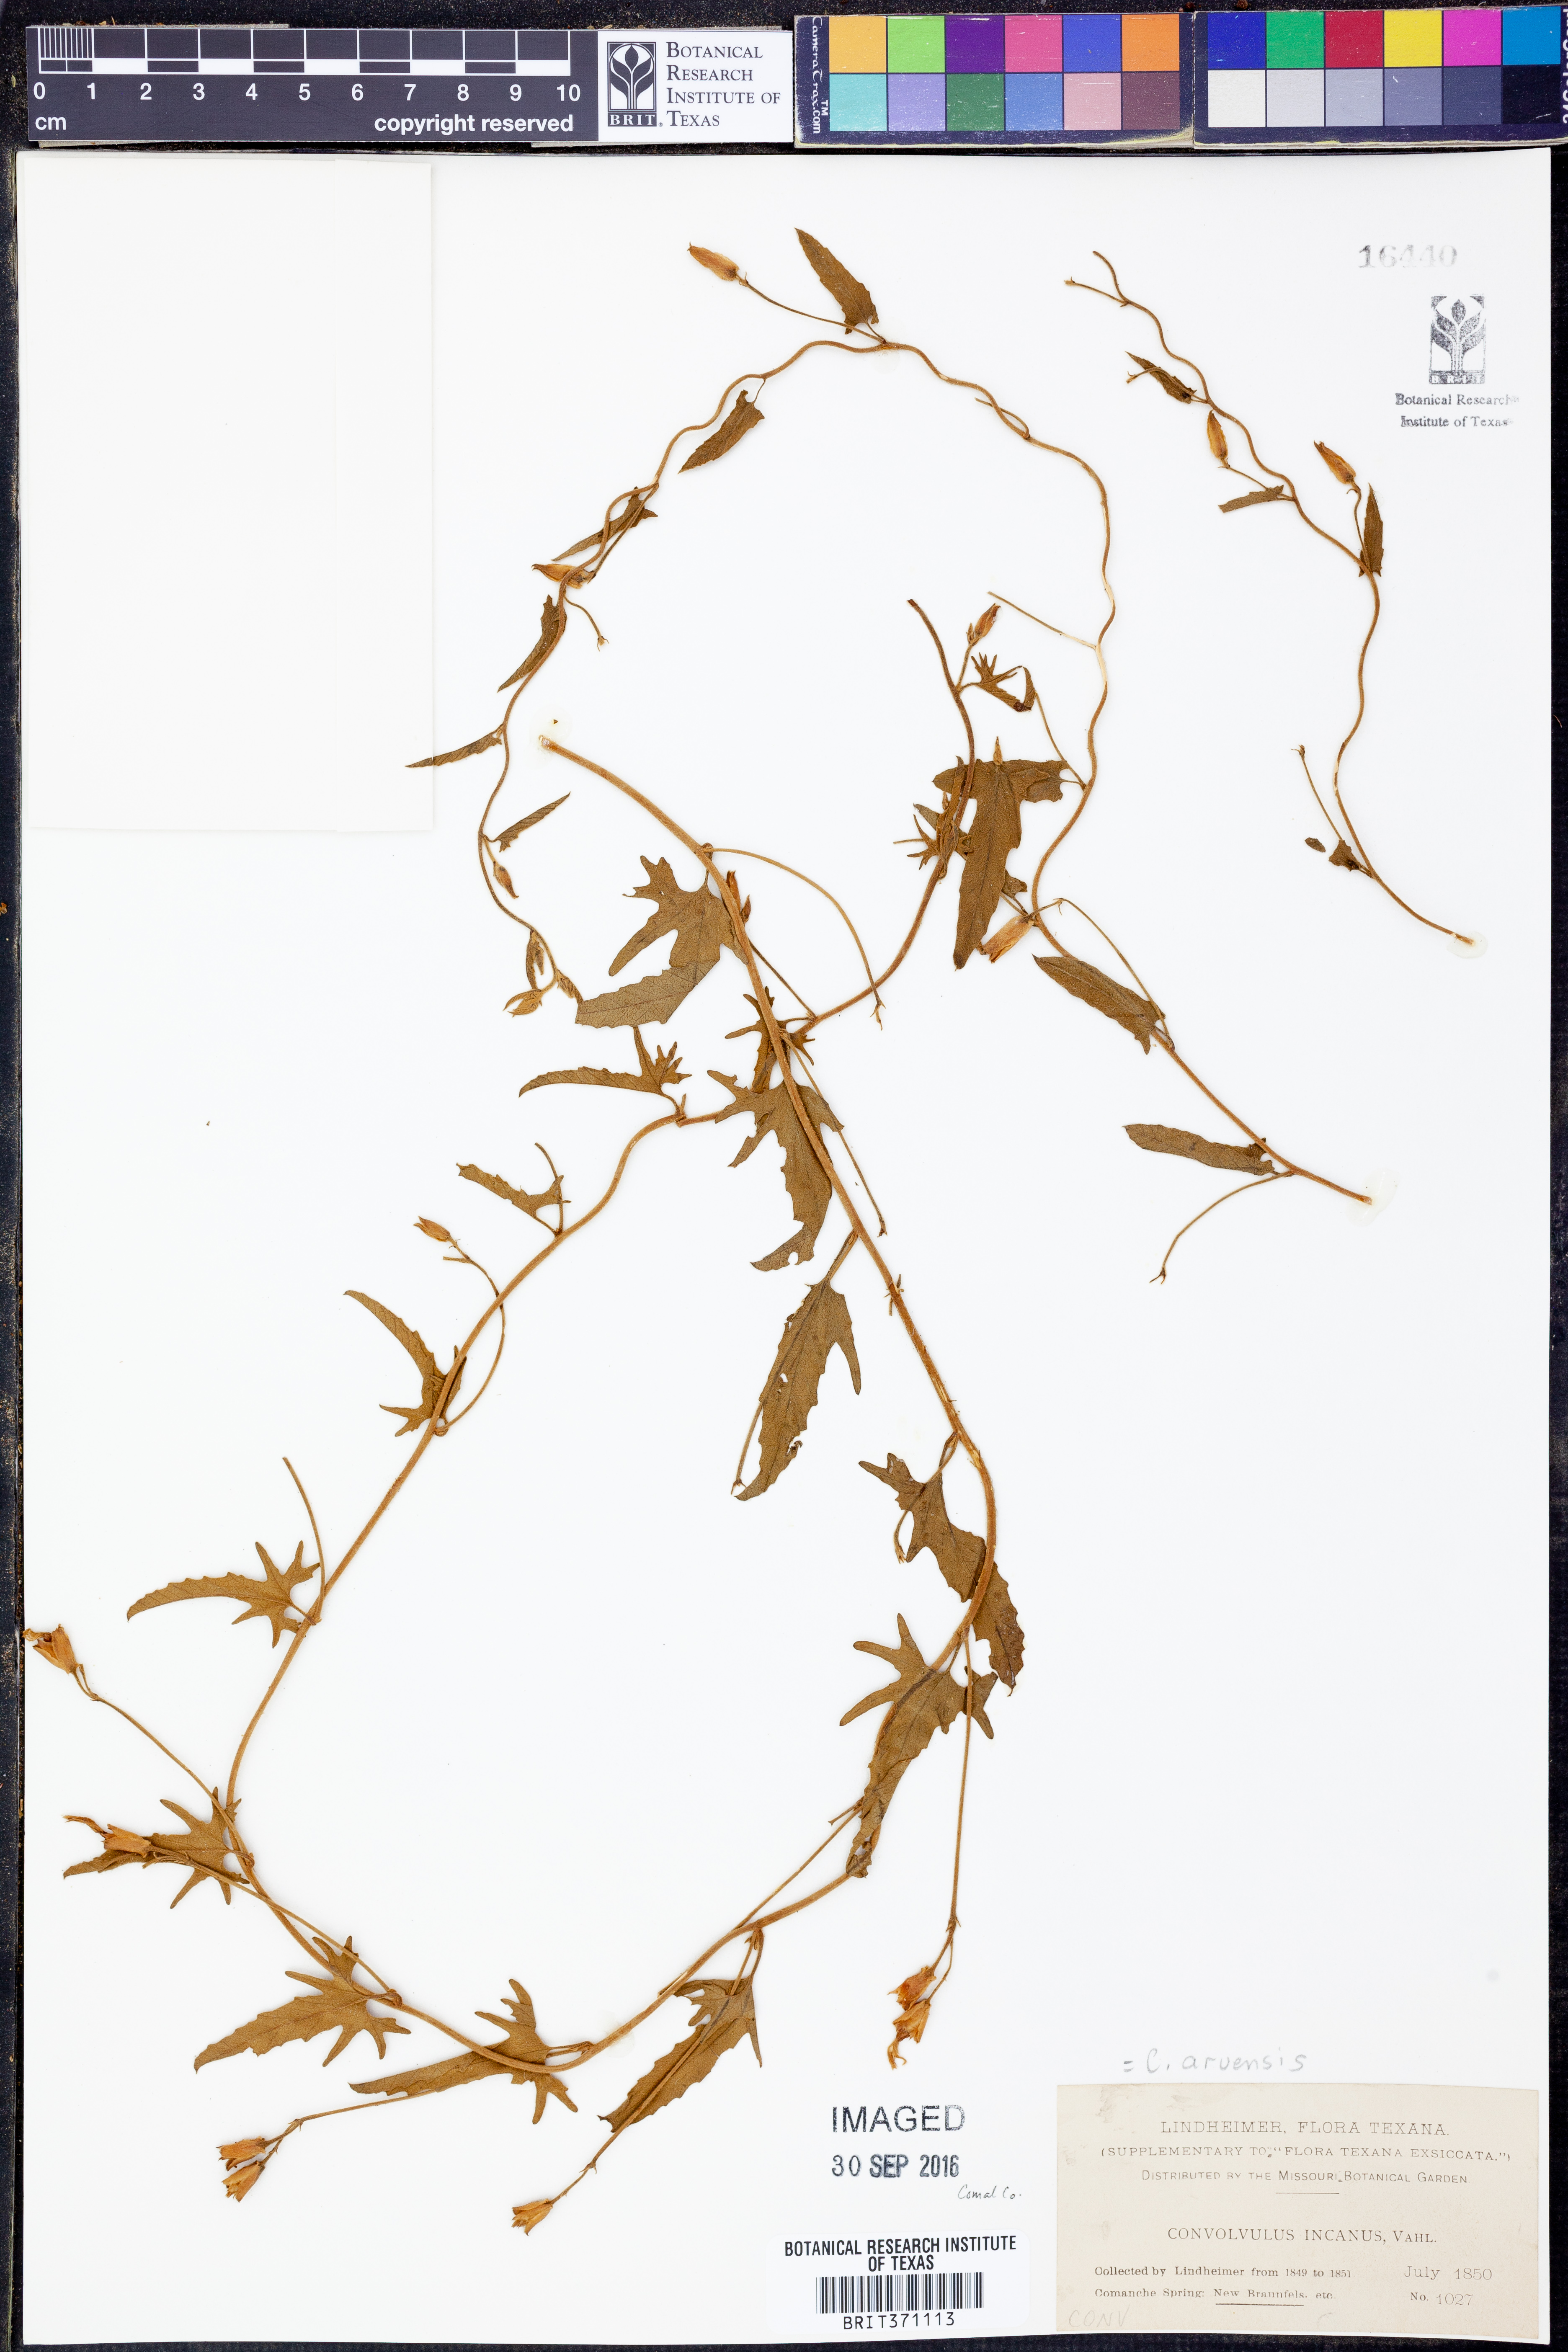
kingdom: Plantae
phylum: Tracheophyta
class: Magnoliopsida
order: Solanales
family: Convolvulaceae
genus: Convolvulus
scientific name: Convolvulus arvensis
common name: Field bindweed
